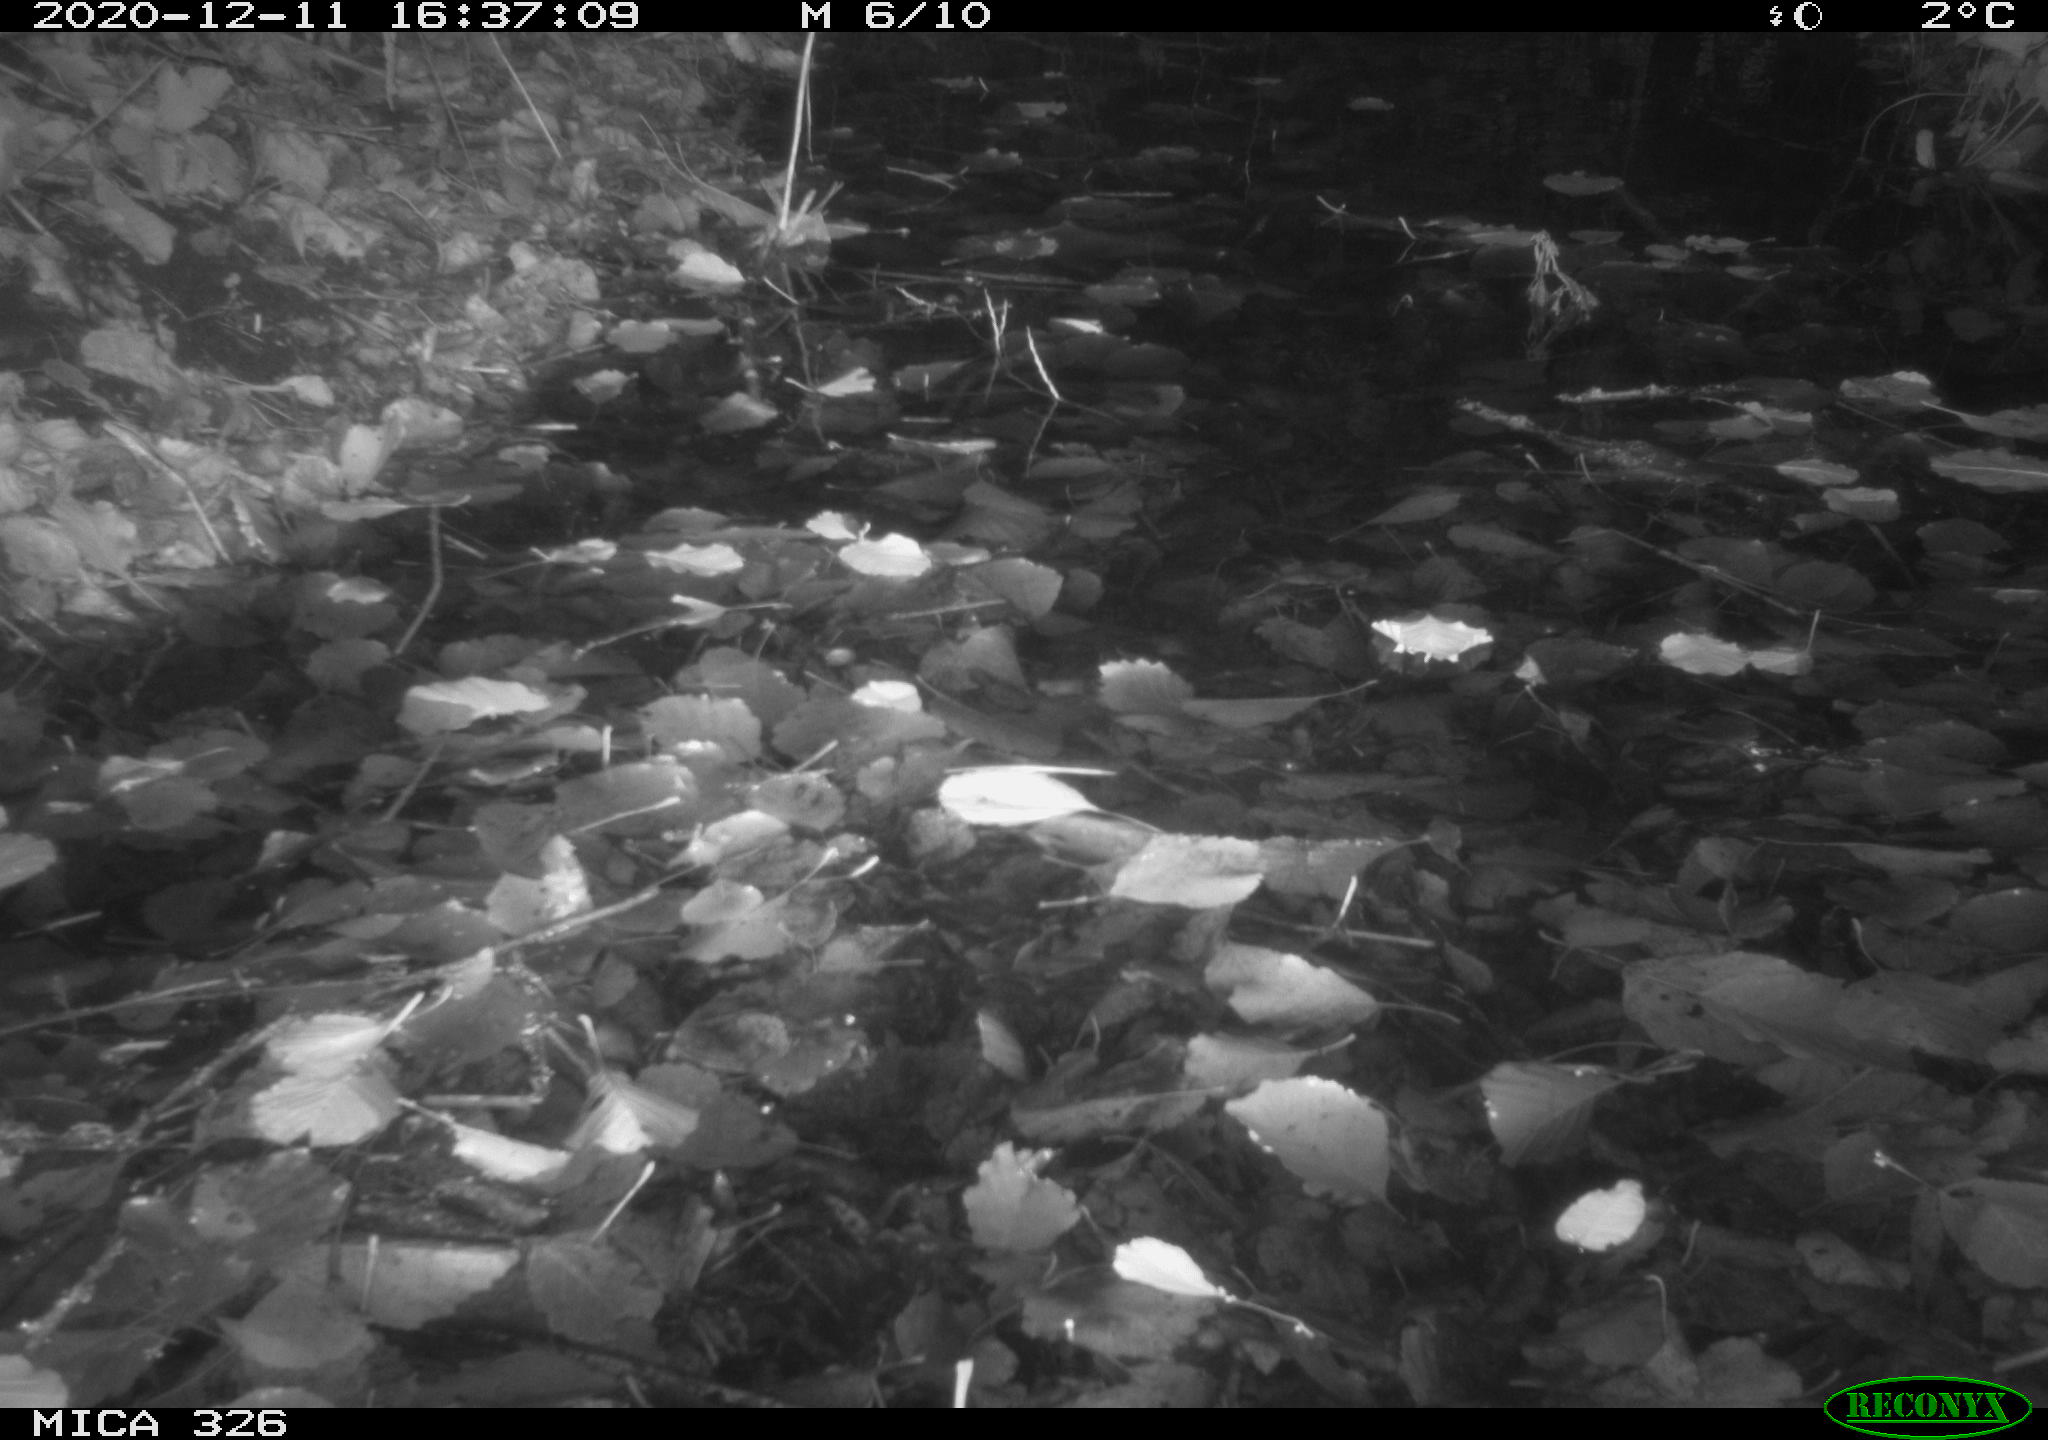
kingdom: Animalia
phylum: Chordata
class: Aves
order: Gruiformes
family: Rallidae
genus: Rallus
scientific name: Rallus aquaticus
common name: Water rail
